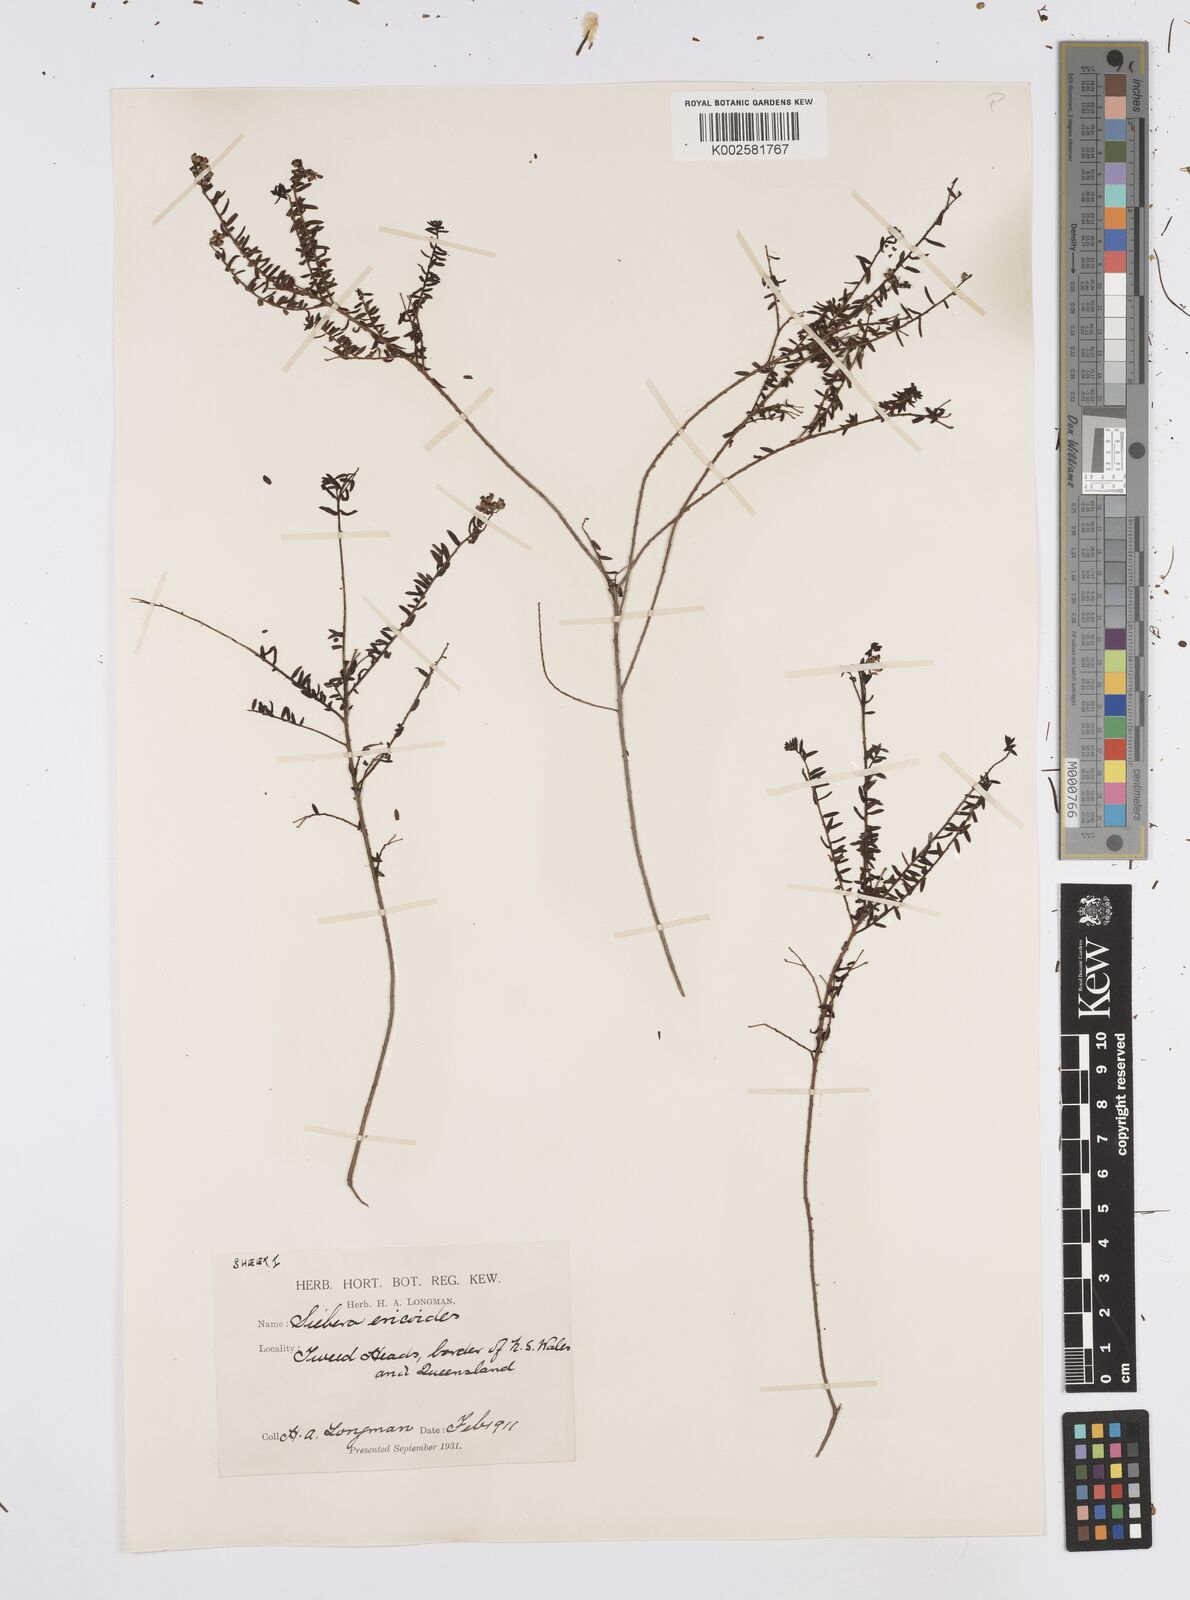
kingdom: Plantae
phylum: Tracheophyta
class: Magnoliopsida
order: Apiales
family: Apiaceae
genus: Platysace
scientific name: Platysace ericoides
